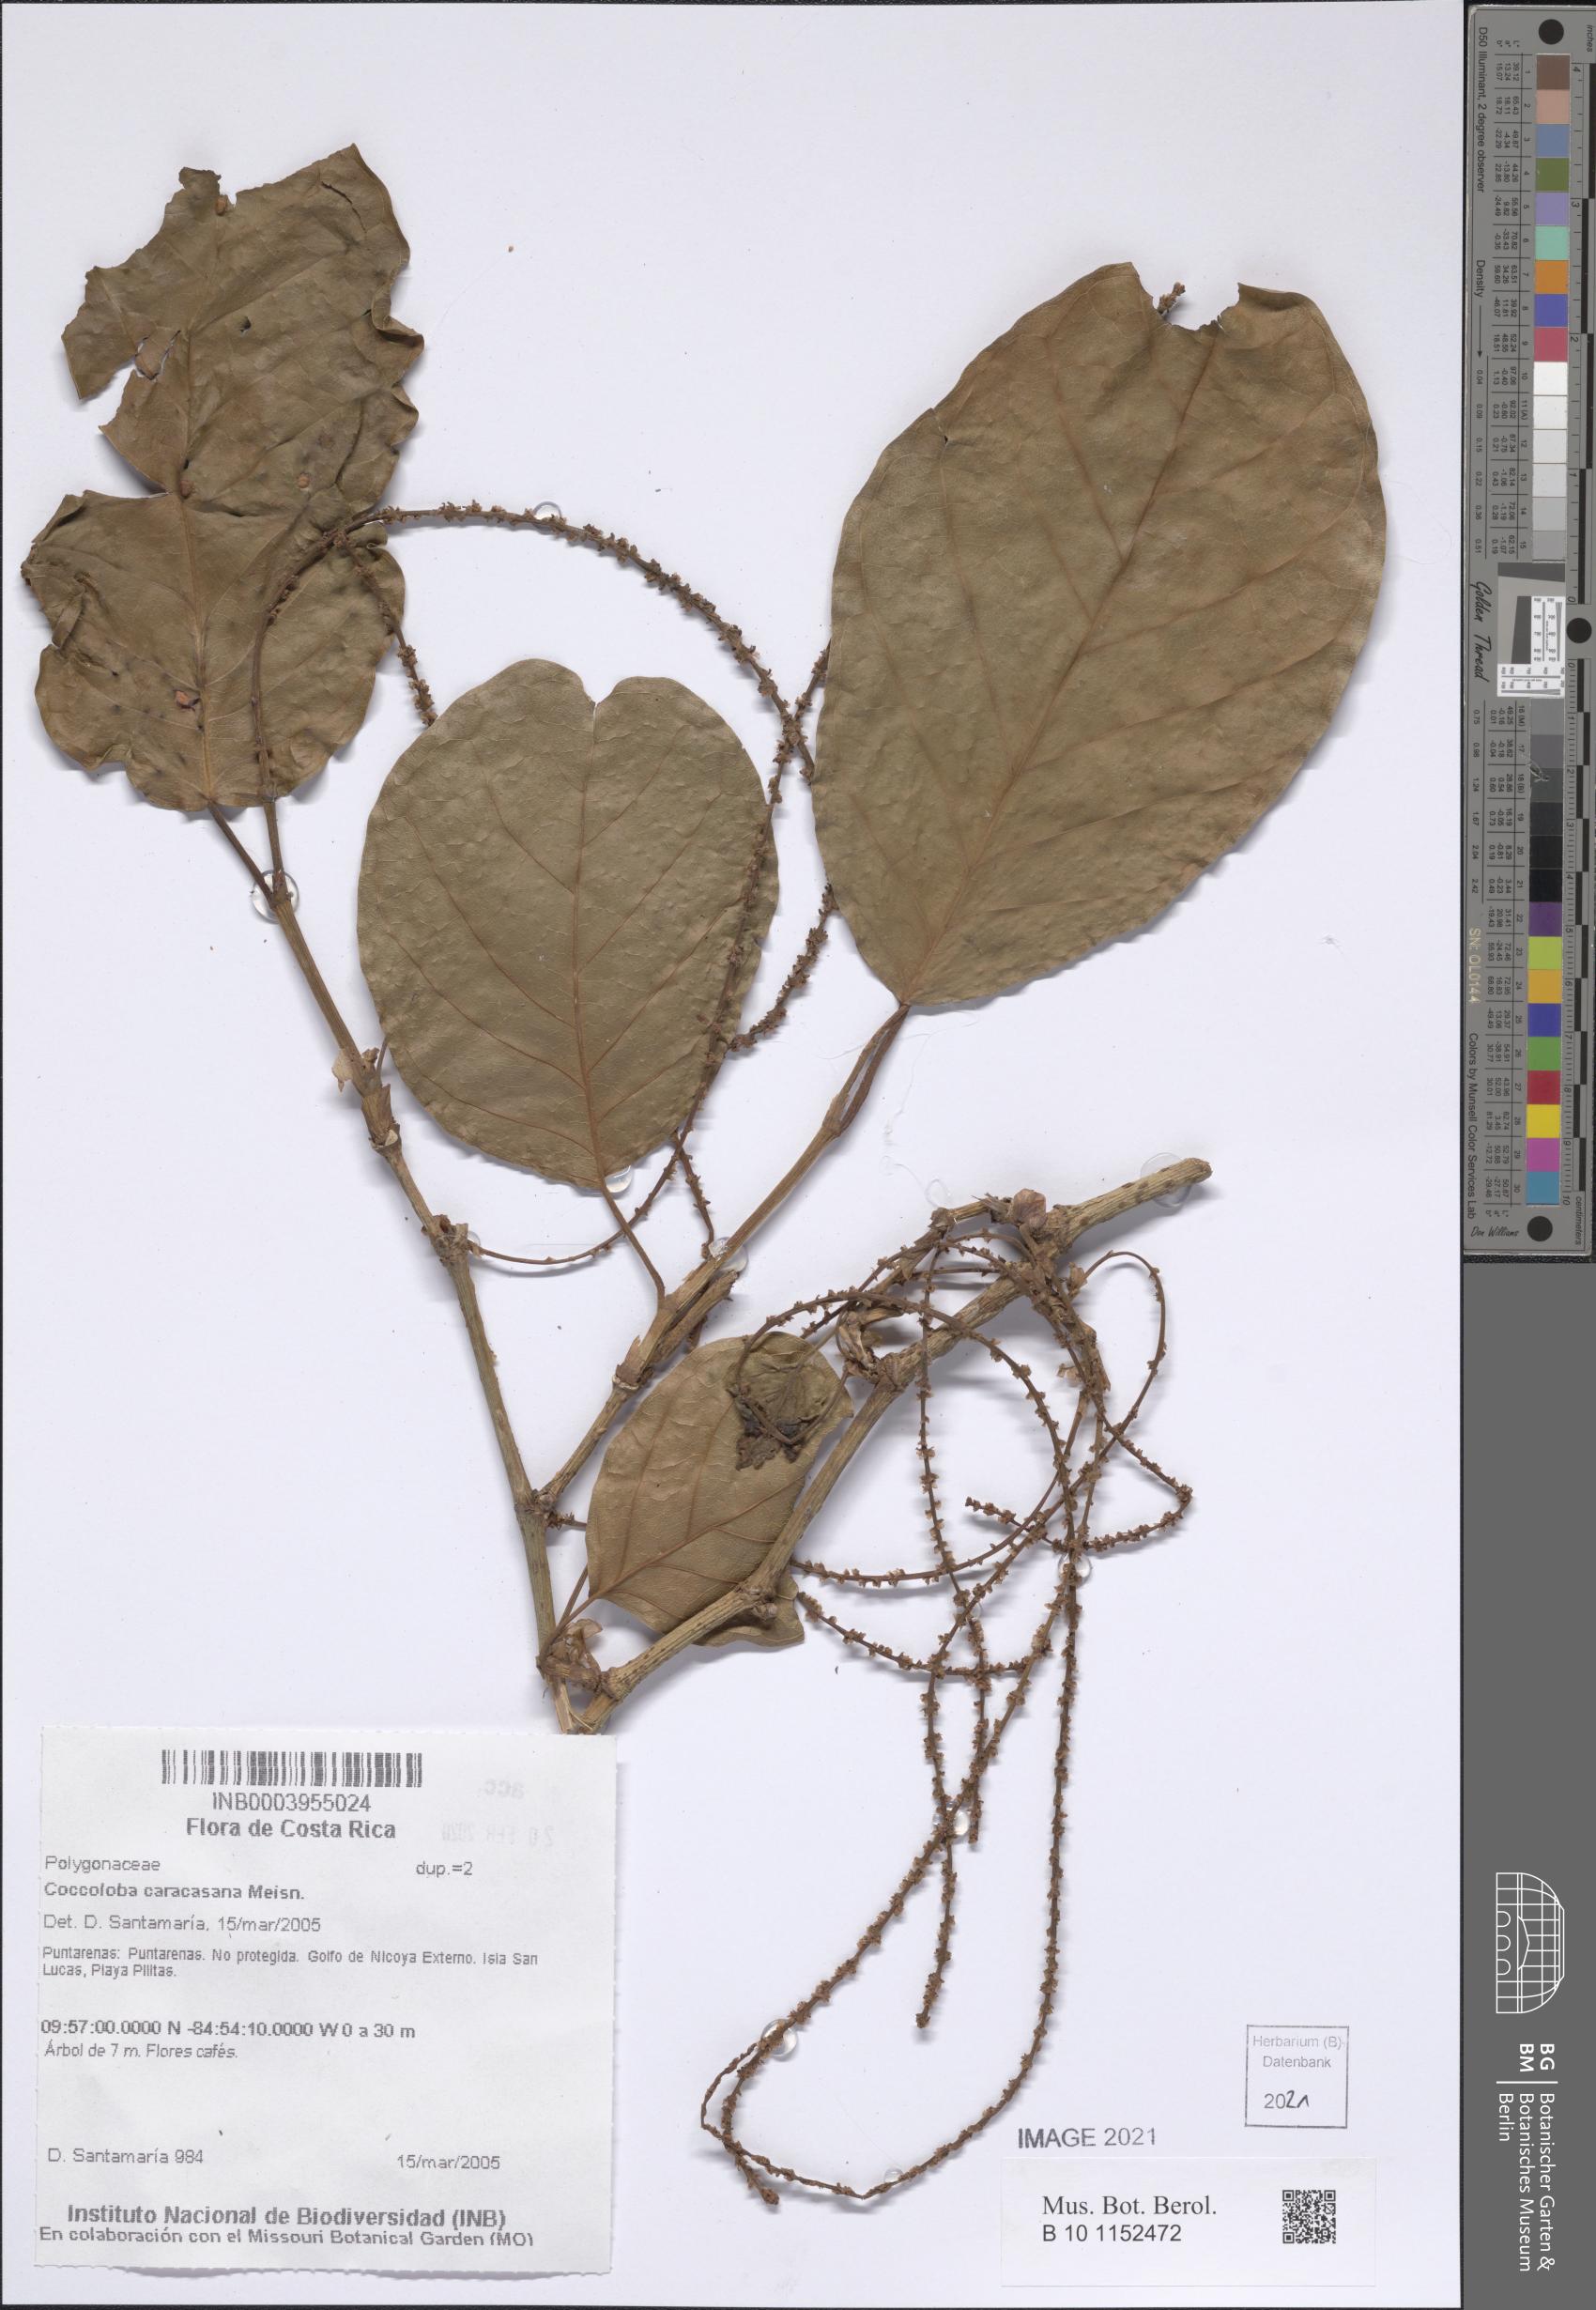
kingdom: Plantae
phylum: Tracheophyta
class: Magnoliopsida
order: Caryophyllales
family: Polygonaceae
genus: Coccoloba
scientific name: Coccoloba caracasana
